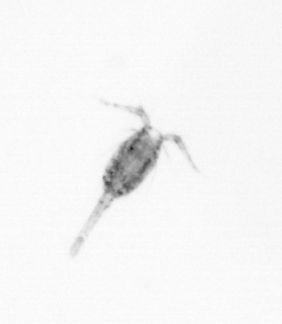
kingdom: Animalia
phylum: Arthropoda
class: Copepoda
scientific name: Copepoda
